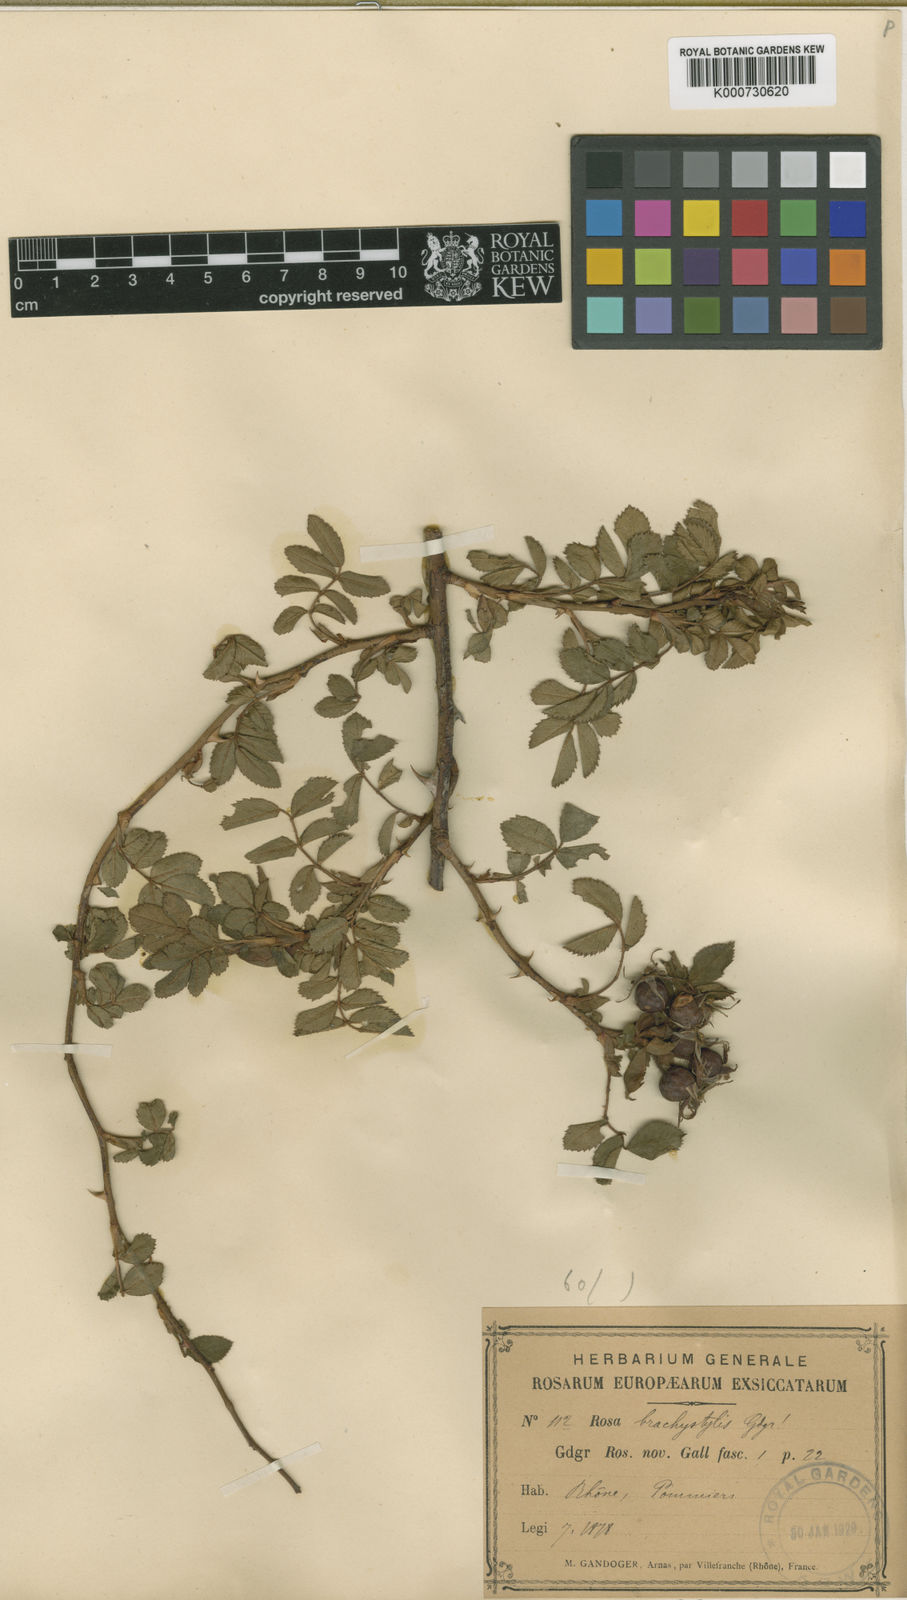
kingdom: Plantae
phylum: Tracheophyta
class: Magnoliopsida
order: Rosales
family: Rosaceae
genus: Rosa
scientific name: Rosa rubiginosa
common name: Sweet-briar
